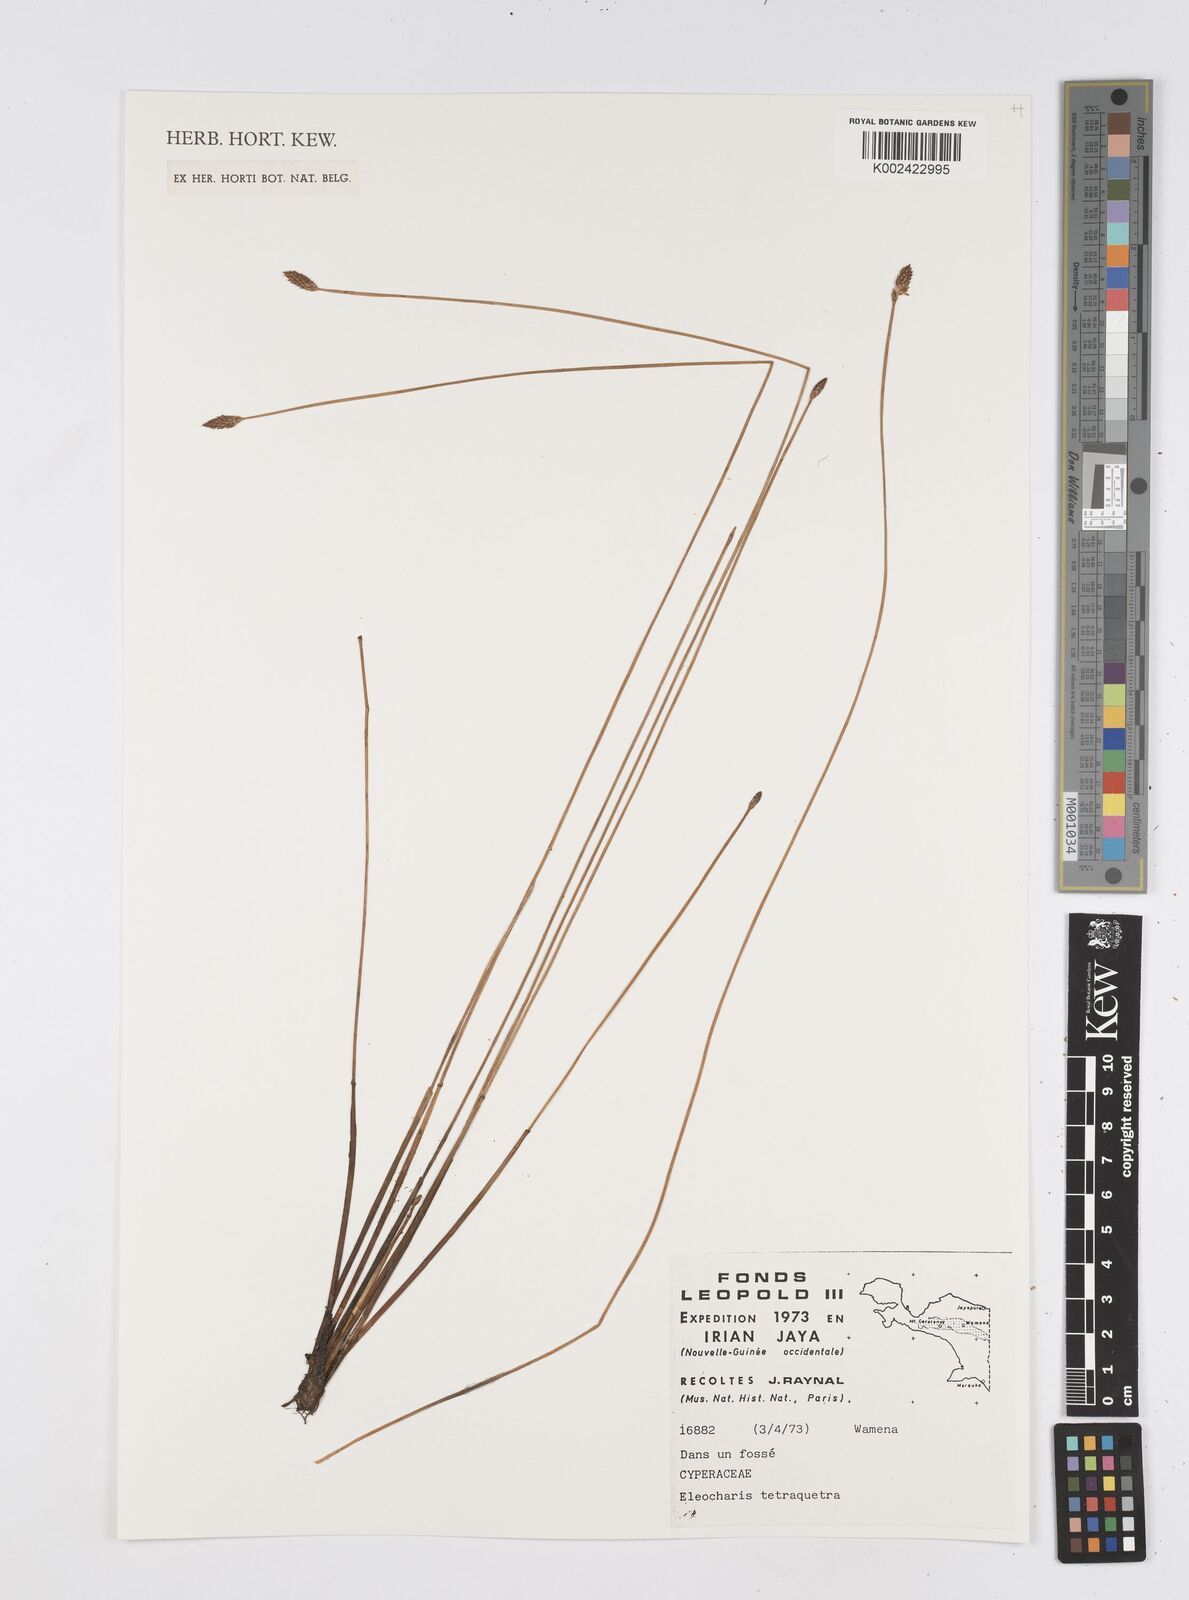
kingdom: Plantae
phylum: Tracheophyta
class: Liliopsida
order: Poales
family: Cyperaceae
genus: Eleocharis
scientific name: Eleocharis tetraquetra
